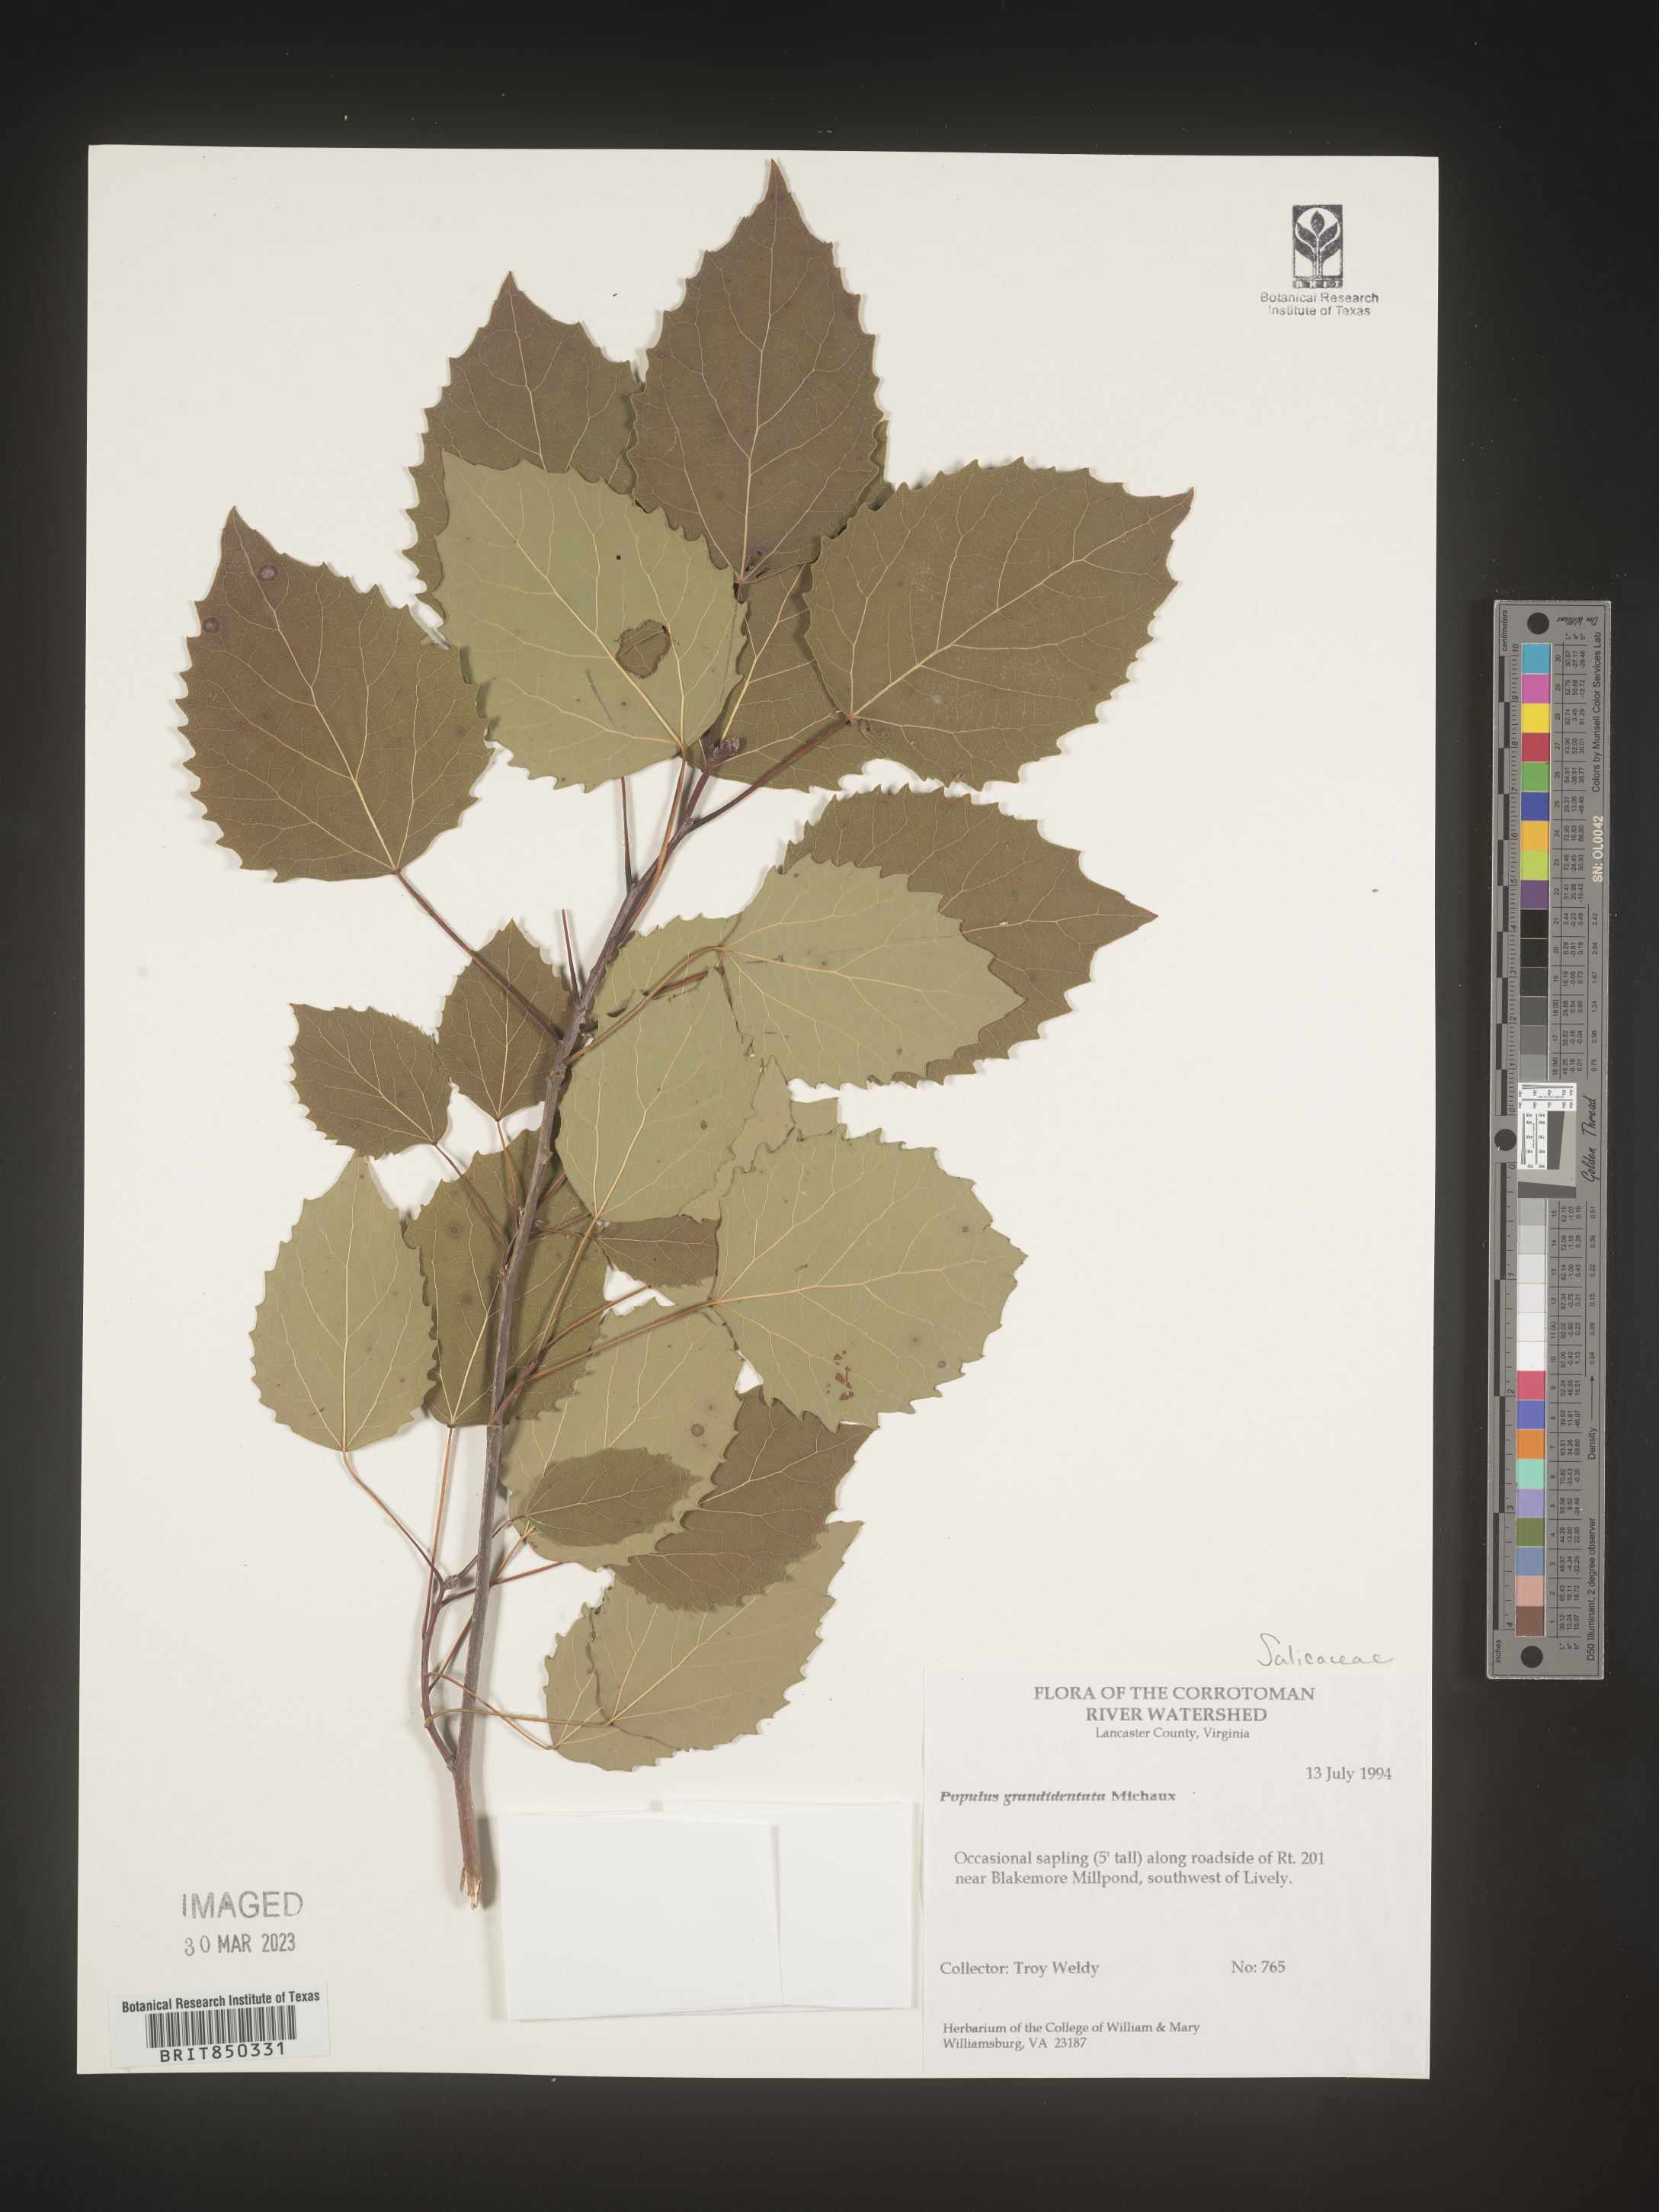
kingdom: Plantae
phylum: Tracheophyta
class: Magnoliopsida
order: Malpighiales
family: Salicaceae
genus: Populus
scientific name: Populus grandidentata
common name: Bigtooth aspen
